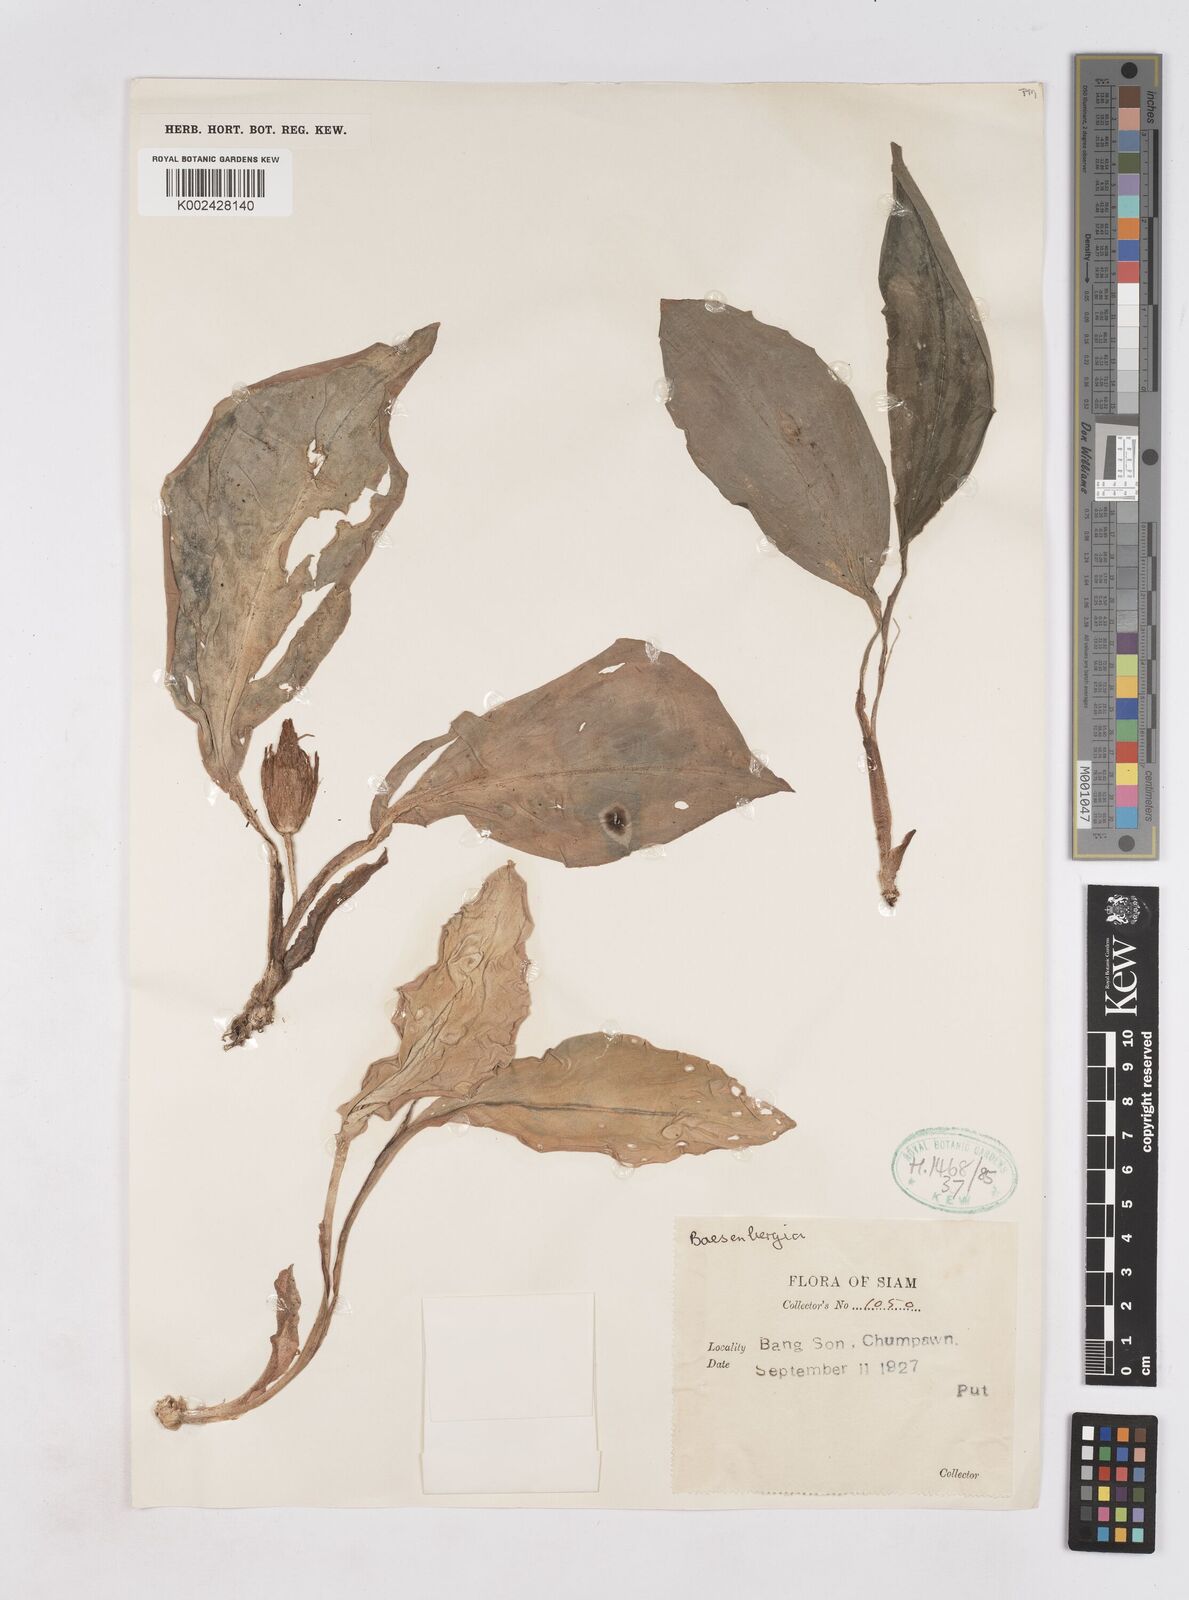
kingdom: Plantae
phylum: Tracheophyta
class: Liliopsida
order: Zingiberales
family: Zingiberaceae
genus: Kaempferia
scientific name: Kaempferia
